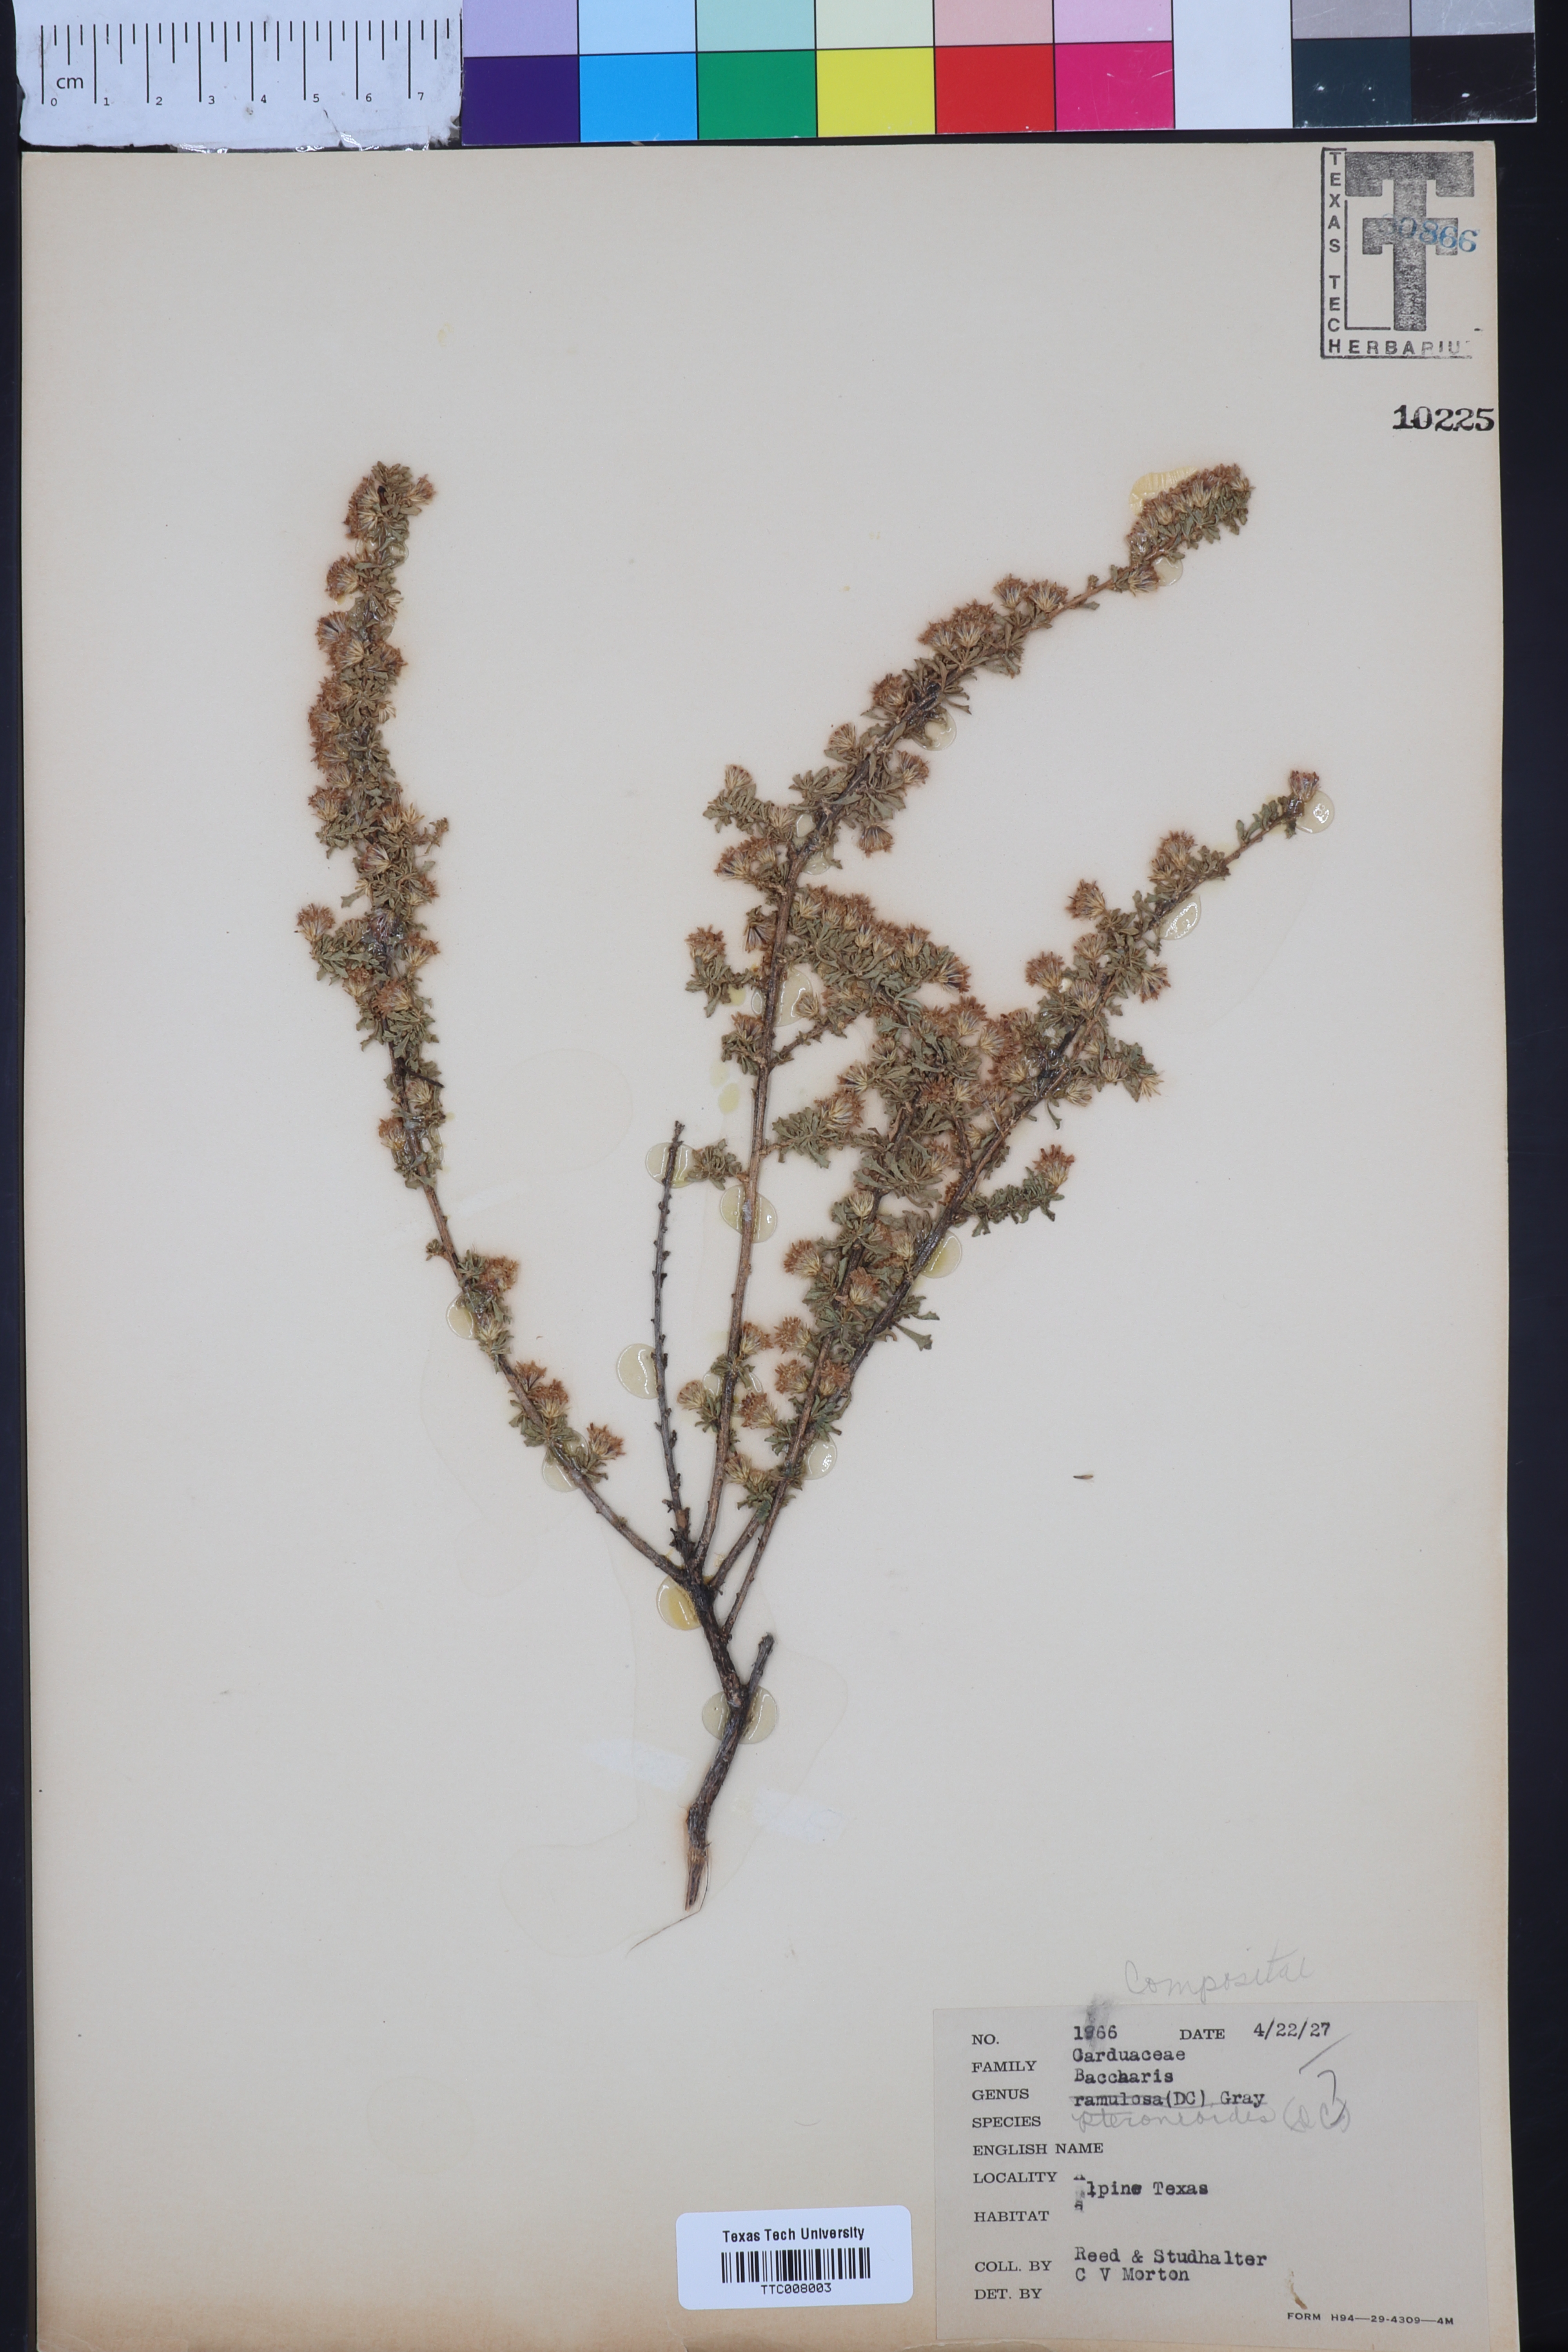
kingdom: Plantae
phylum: Tracheophyta
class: Magnoliopsida
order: Asterales
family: Asteraceae
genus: Baccharis
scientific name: Baccharis pteronioides
